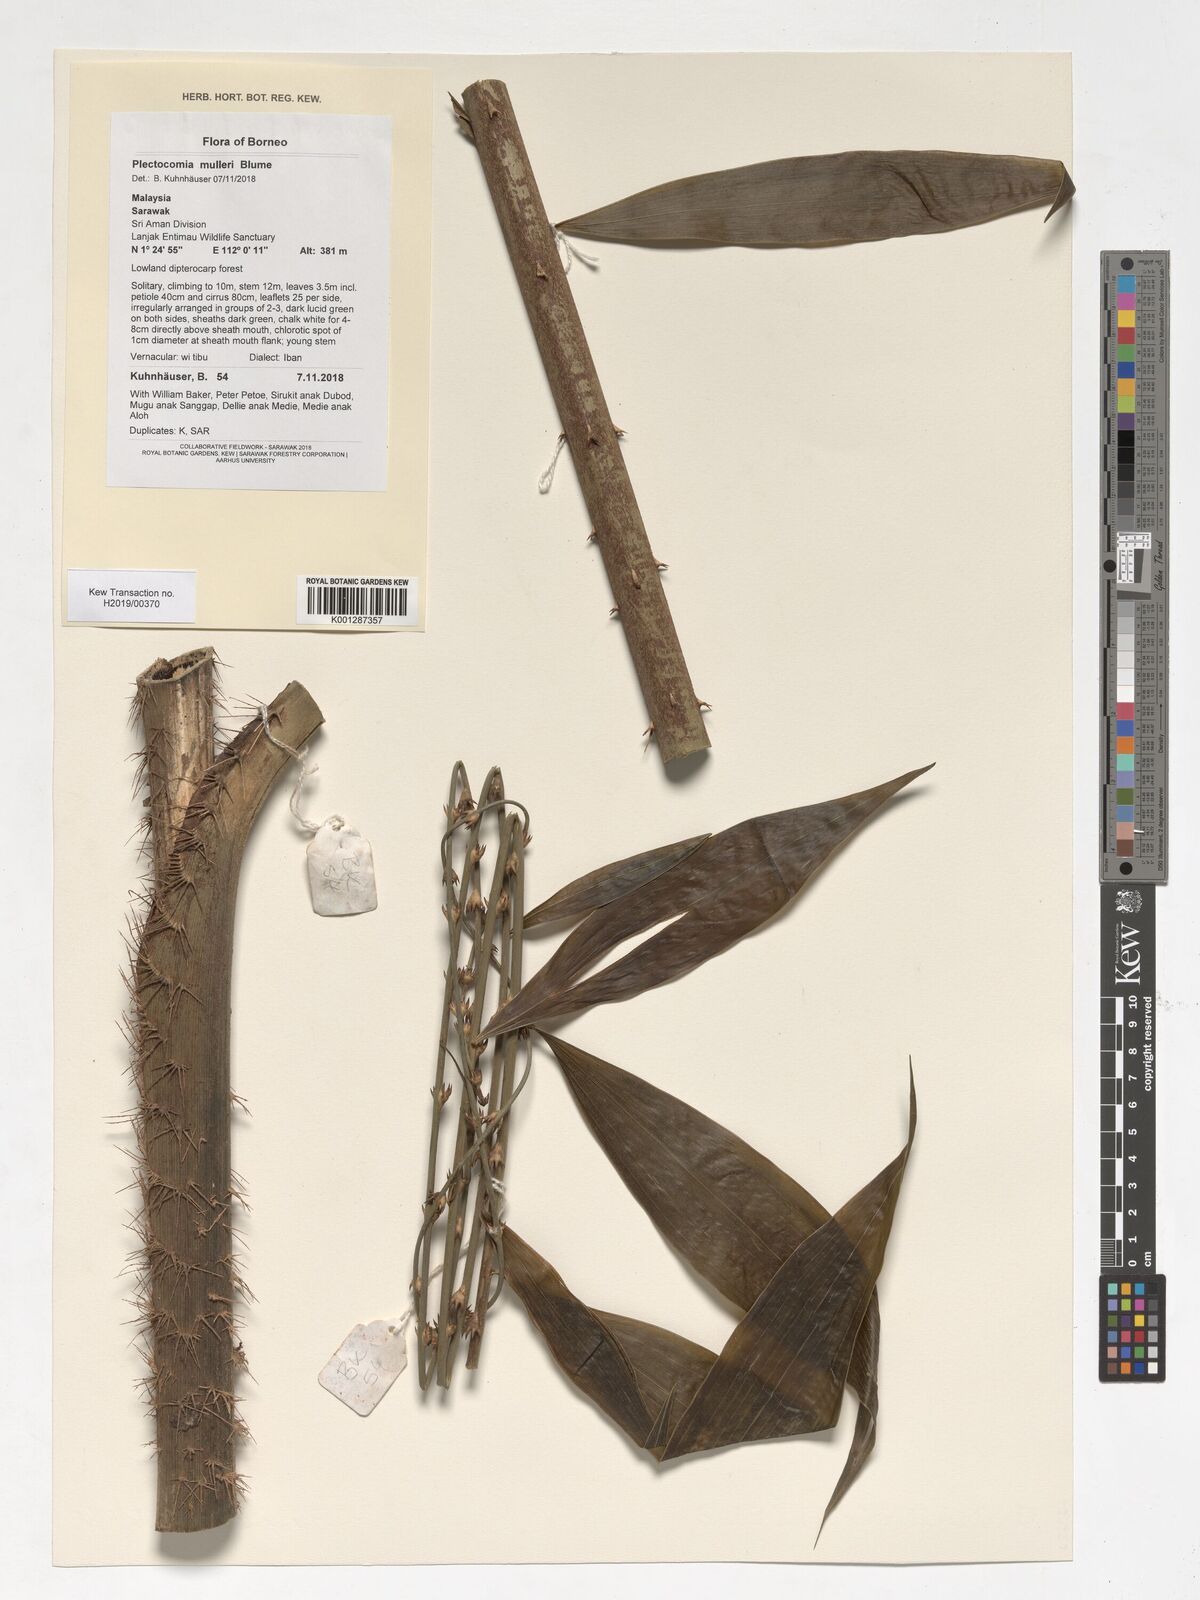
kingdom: Plantae
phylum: Tracheophyta
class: Liliopsida
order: Arecales
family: Arecaceae
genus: Plectocomia
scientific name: Plectocomia mulleri
